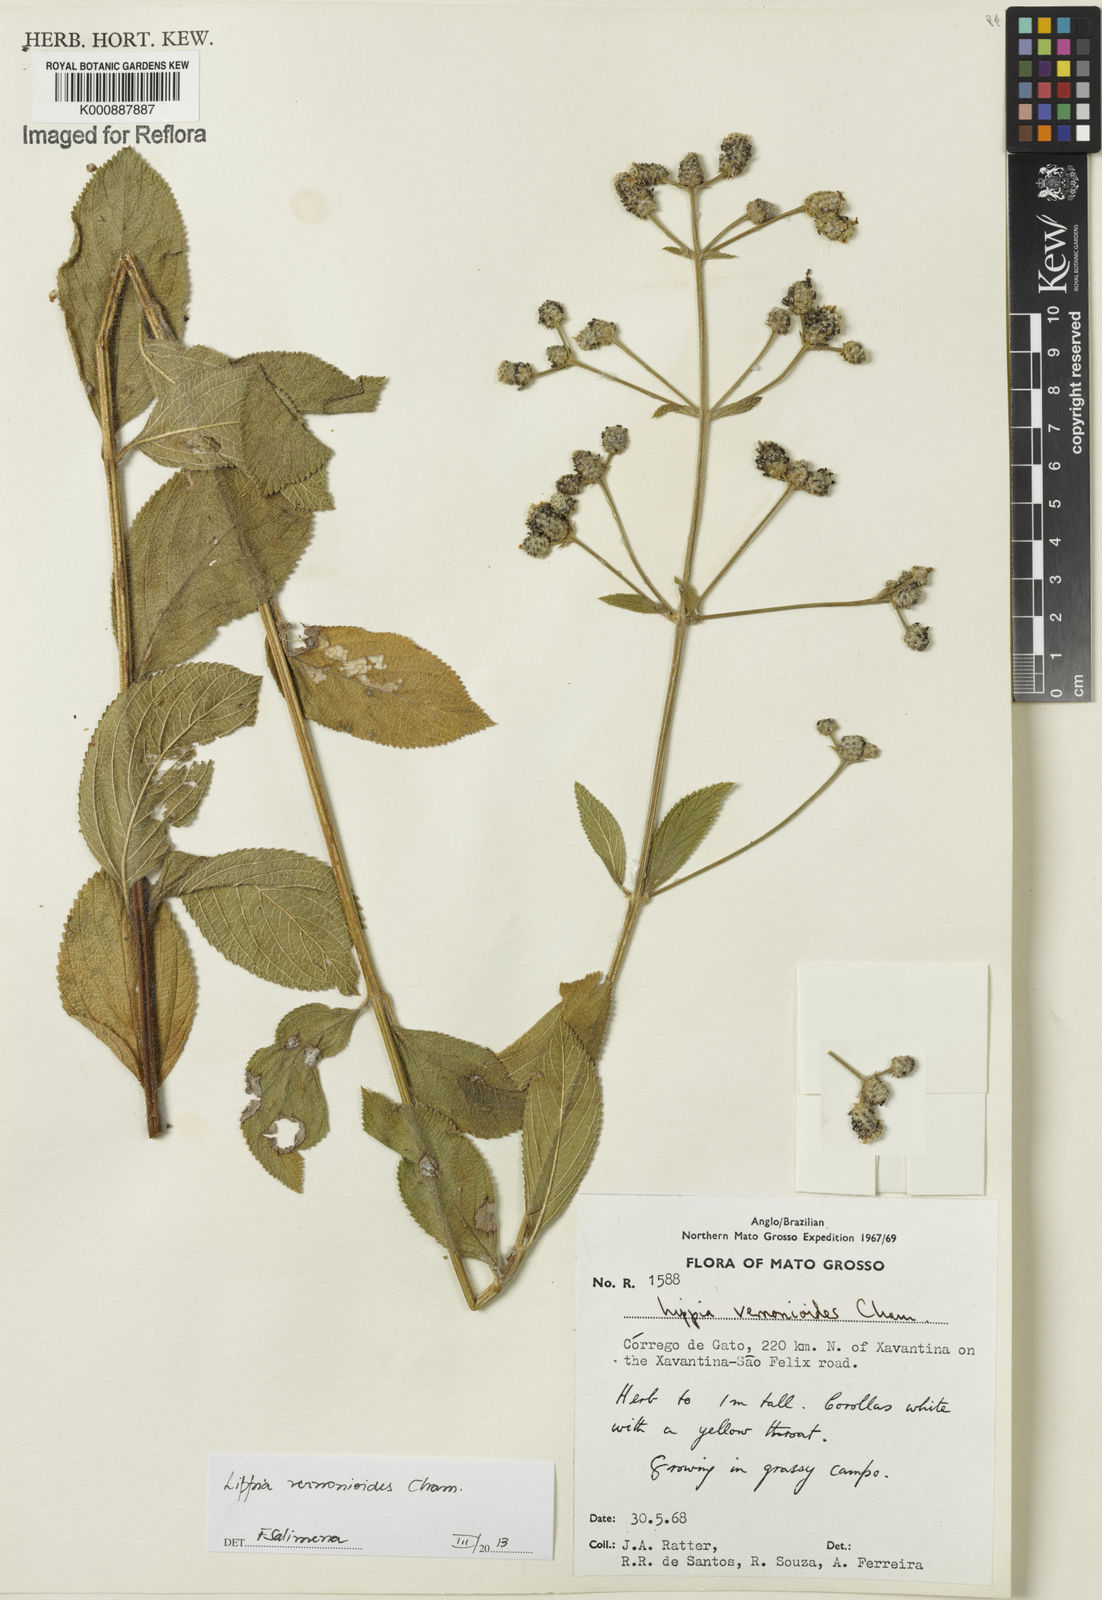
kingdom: Plantae
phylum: Tracheophyta
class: Magnoliopsida
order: Lamiales
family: Verbenaceae
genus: Lippia
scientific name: Lippia vernonioides
